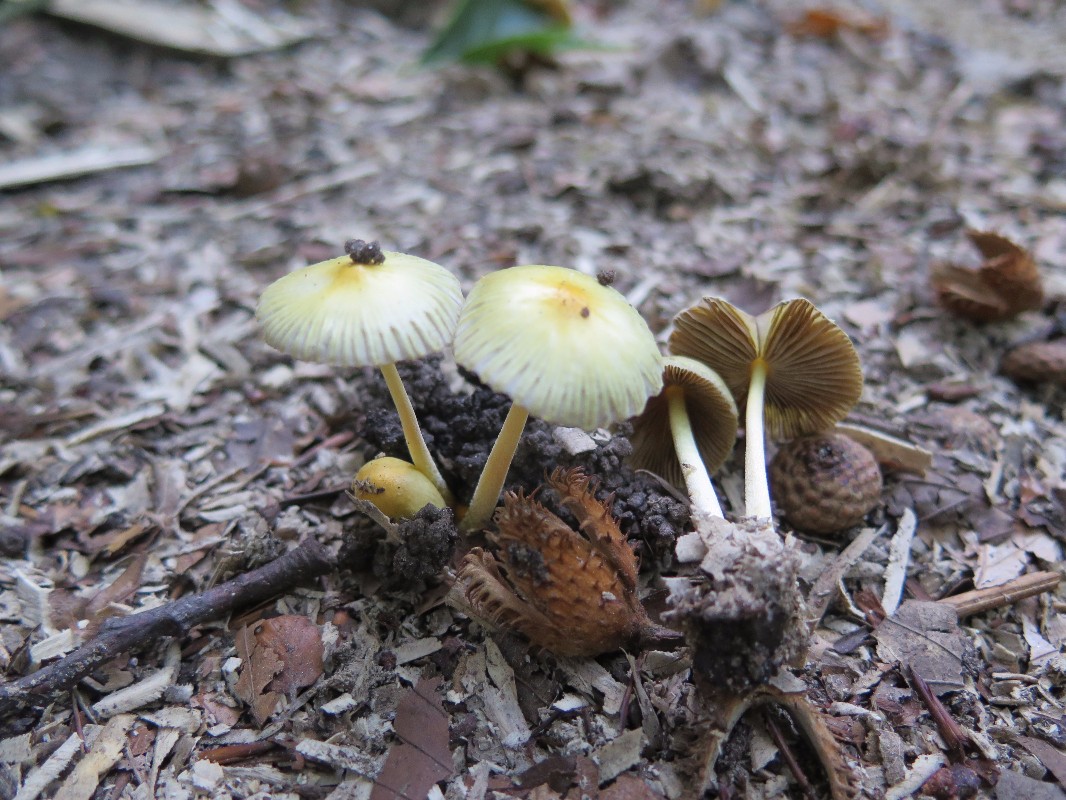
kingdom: Fungi
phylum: Basidiomycota
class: Agaricomycetes
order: Agaricales
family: Bolbitiaceae
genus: Bolbitius
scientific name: Bolbitius titubans
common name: almindelig gulhat
